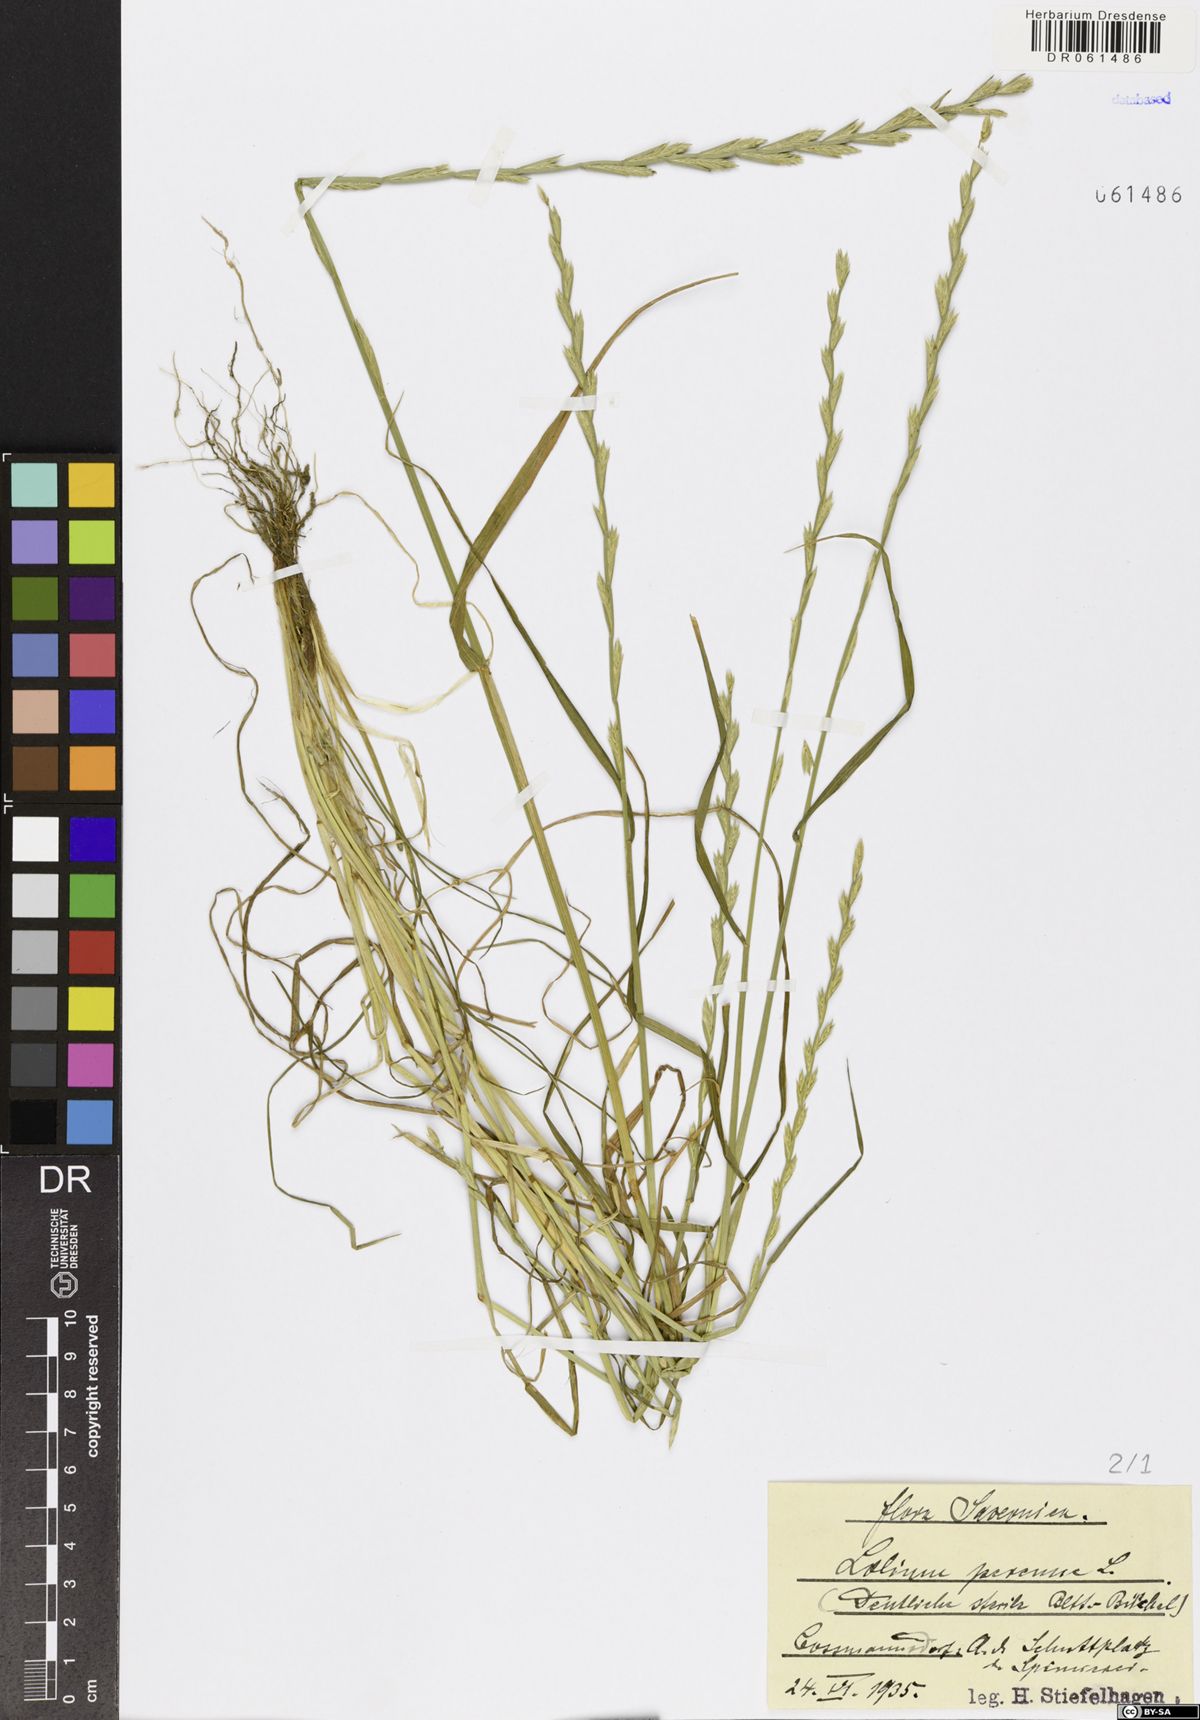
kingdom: Plantae
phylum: Tracheophyta
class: Liliopsida
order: Poales
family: Poaceae
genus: Lolium
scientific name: Lolium perenne
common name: Perennial ryegrass
